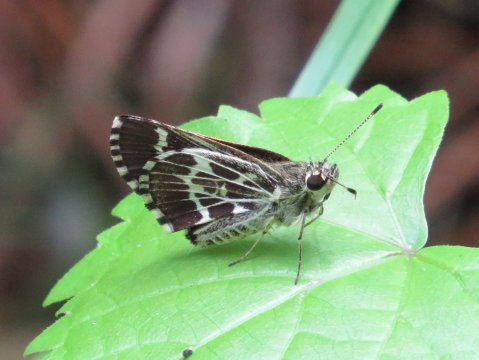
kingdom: Animalia
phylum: Arthropoda
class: Insecta
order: Lepidoptera
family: Hesperiidae
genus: Mastor
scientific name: Mastor aesculapius
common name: Lace-winged Roadside-Skipper
